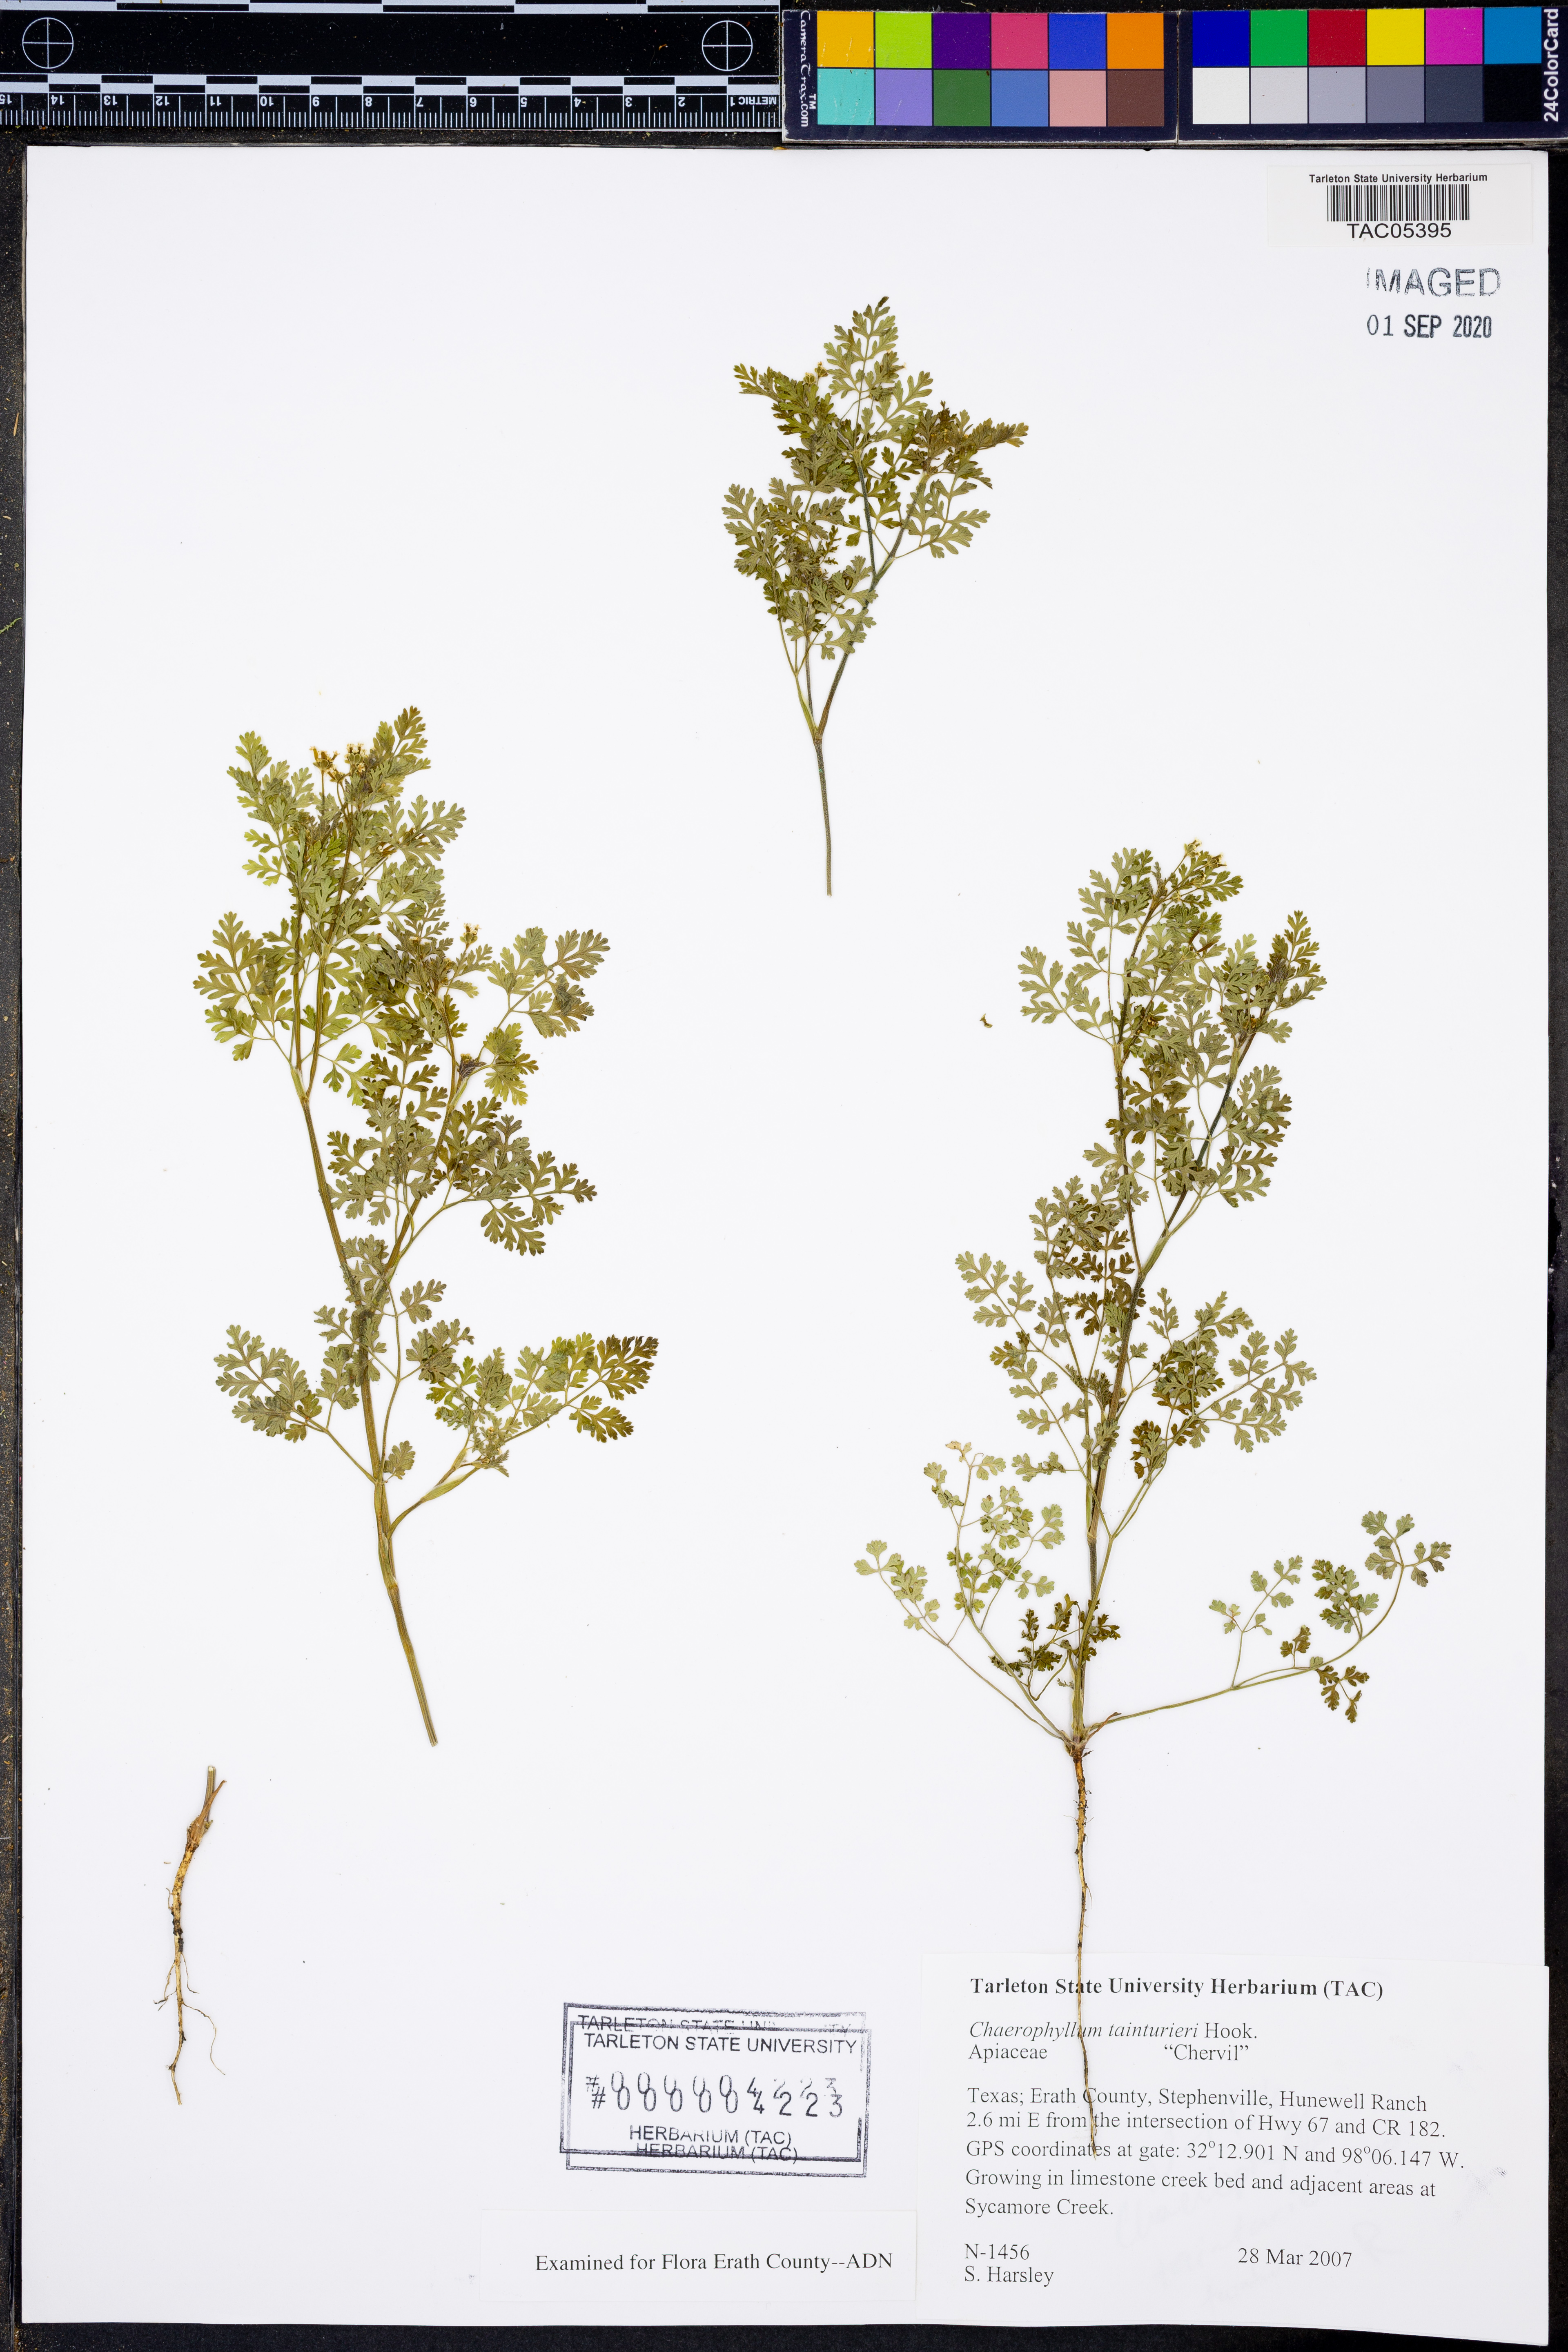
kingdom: Plantae
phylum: Tracheophyta
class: Magnoliopsida
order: Apiales
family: Apiaceae
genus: Chaerophyllum
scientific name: Chaerophyllum tainturieri
